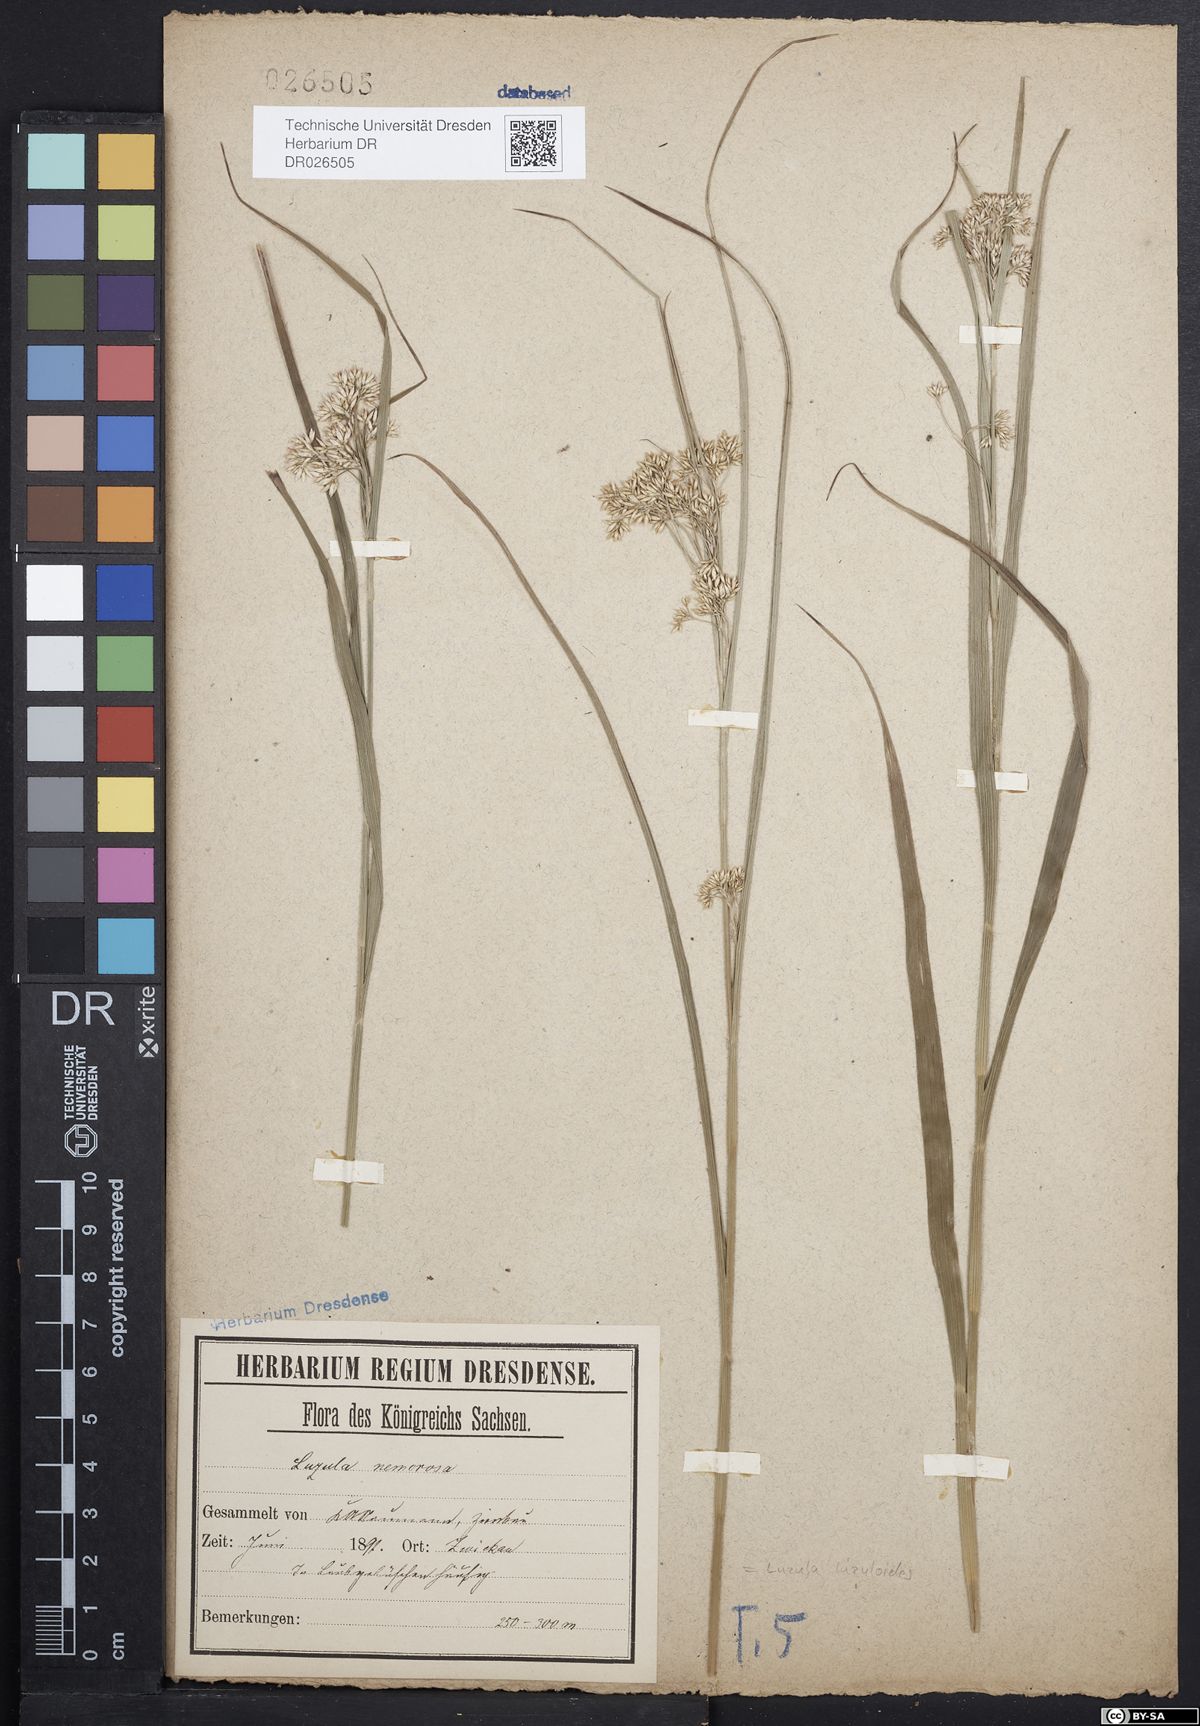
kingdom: Plantae
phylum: Tracheophyta
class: Liliopsida
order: Poales
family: Juncaceae
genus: Luzula
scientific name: Luzula luzuloides
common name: White wood-rush
